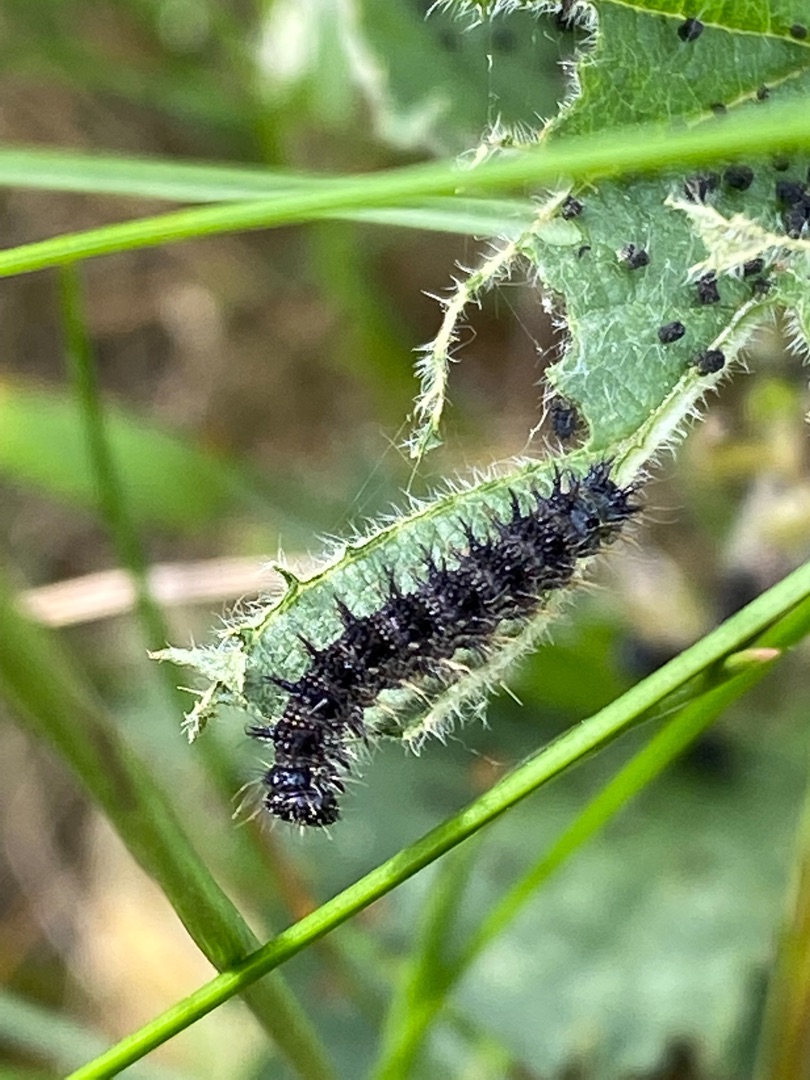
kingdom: Animalia
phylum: Arthropoda
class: Insecta
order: Lepidoptera
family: Nymphalidae
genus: Aglais
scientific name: Aglais urticae
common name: Nældens takvinge
